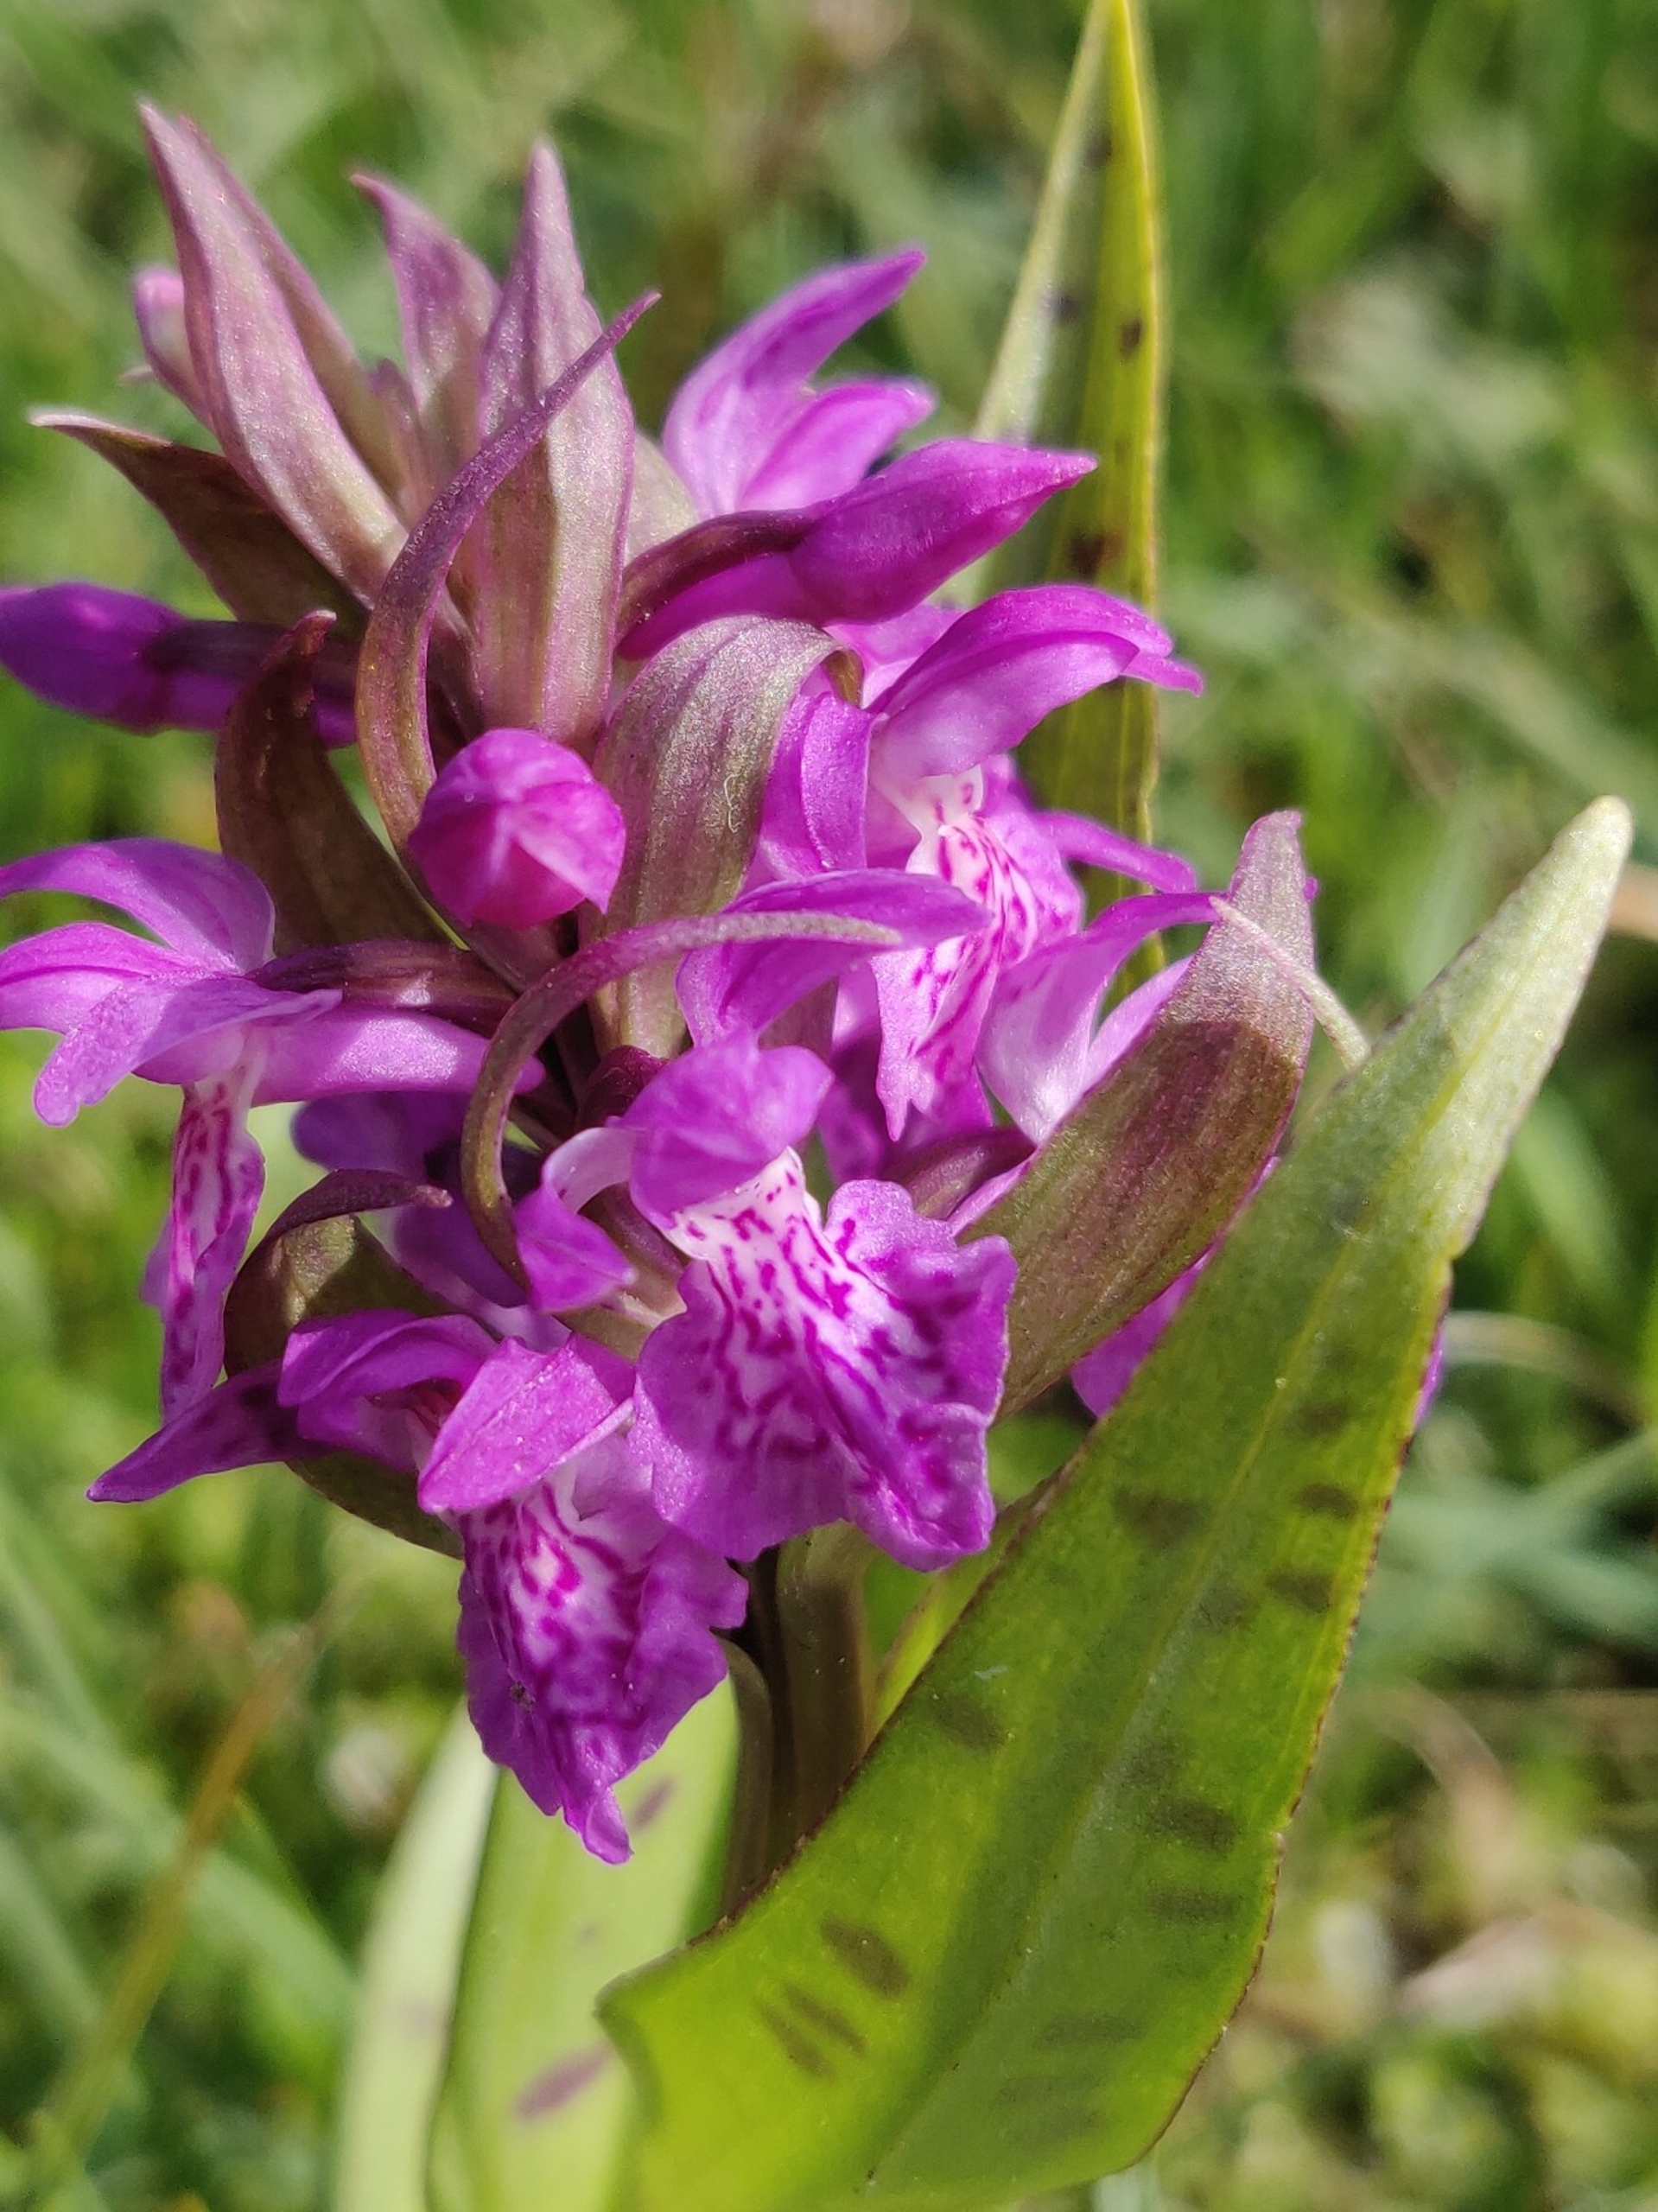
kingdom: Plantae
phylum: Tracheophyta
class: Liliopsida
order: Asparagales
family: Orchidaceae
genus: Dactylorhiza
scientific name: Dactylorhiza majalis
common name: Maj-gøgeurt (underart)
